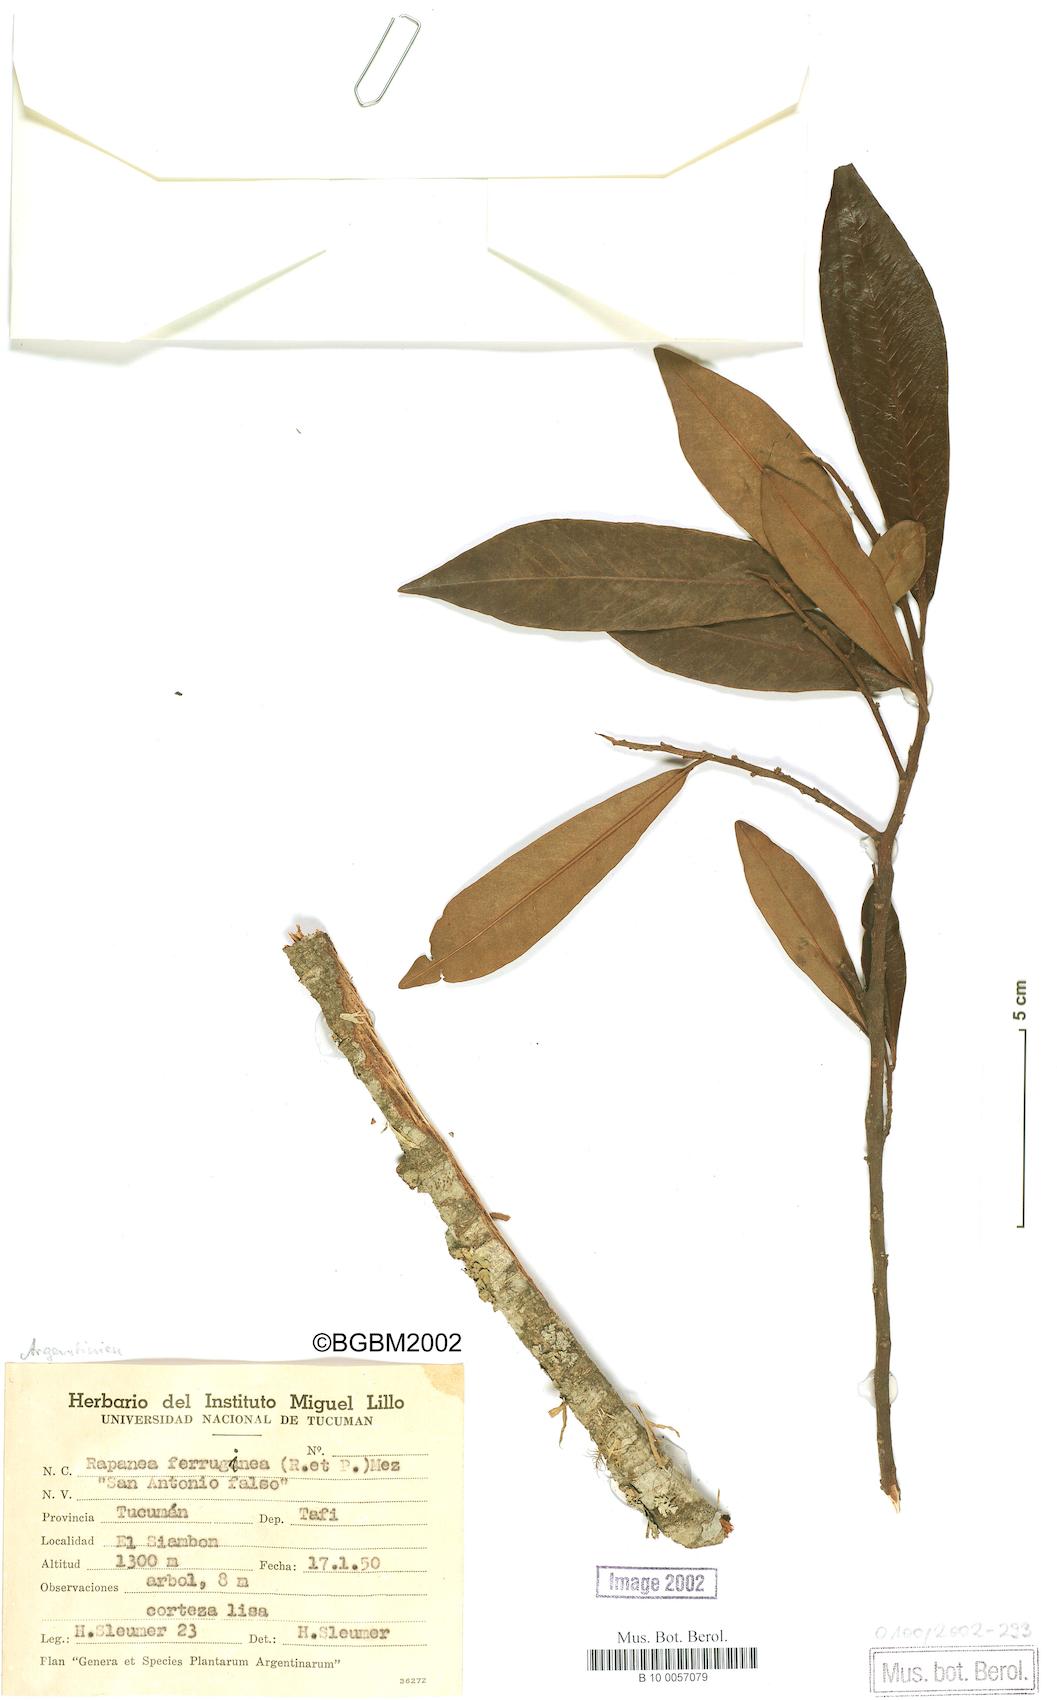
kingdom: Plantae
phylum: Tracheophyta
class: Magnoliopsida
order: Ericales
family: Primulaceae
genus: Myrsine
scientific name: Myrsine coriacea
